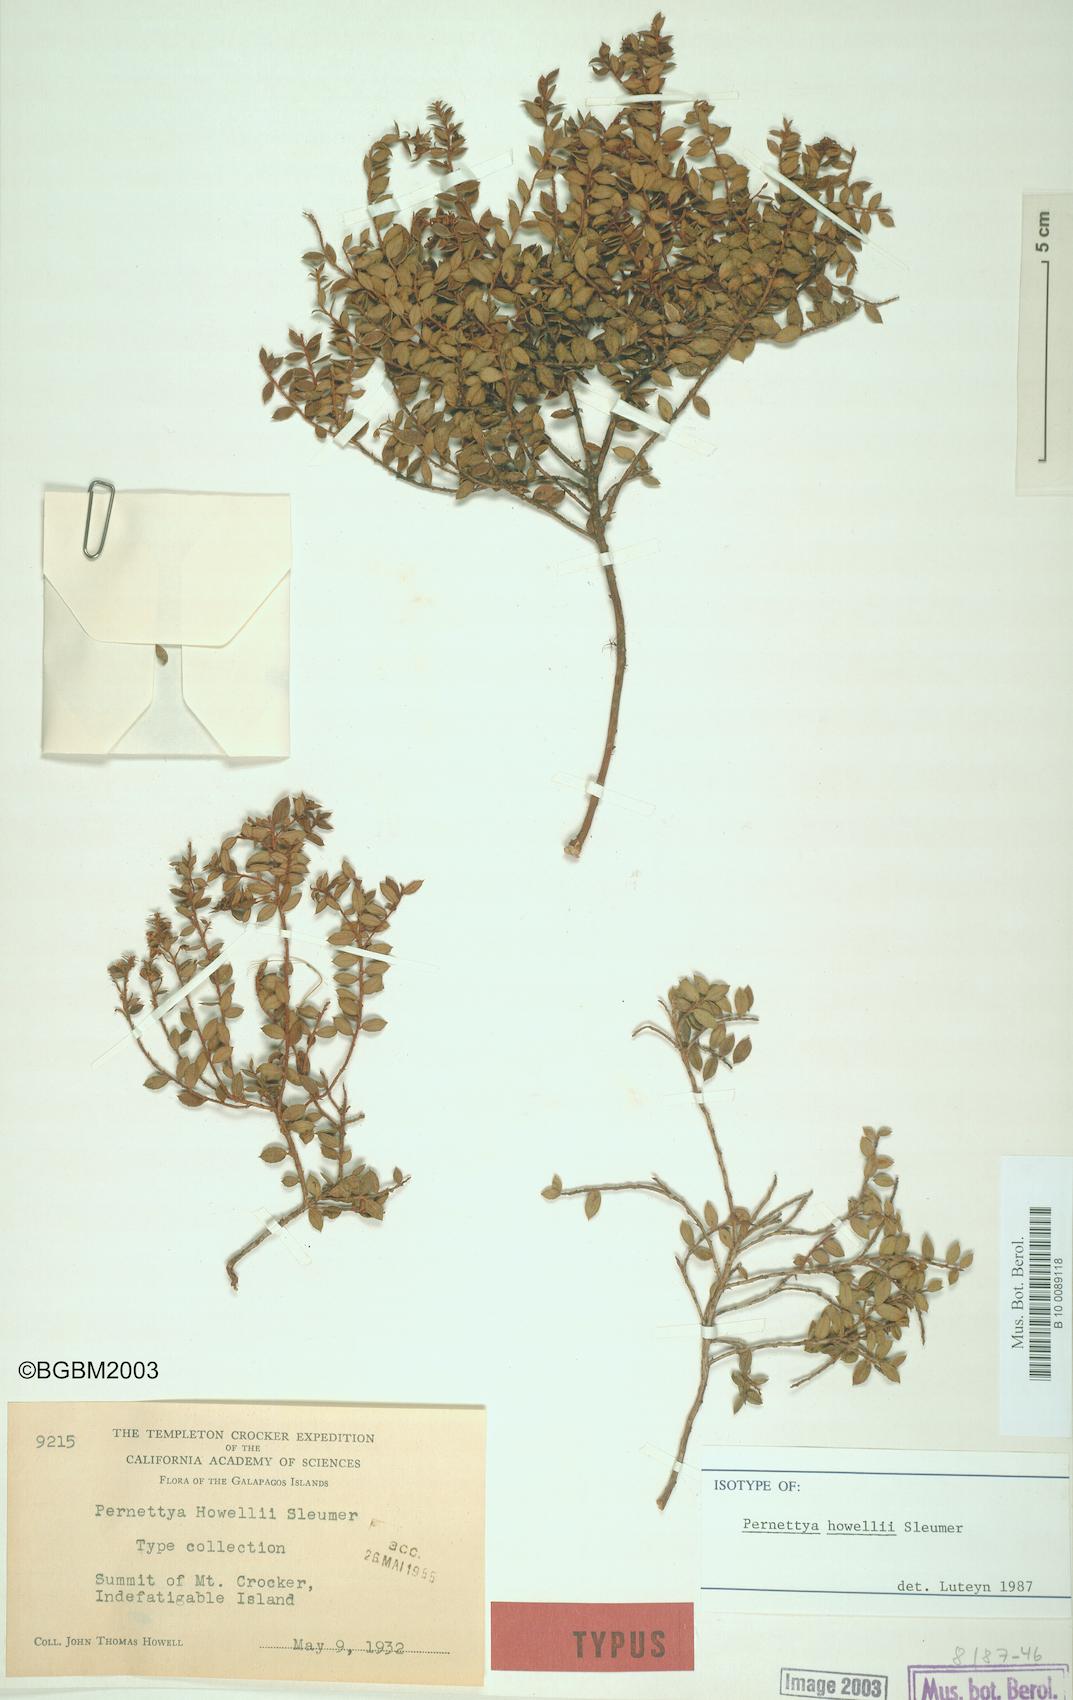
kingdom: Plantae
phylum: Tracheophyta
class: Magnoliopsida
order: Ericales
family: Ericaceae
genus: Gaultheria
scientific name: Gaultheria howellii
